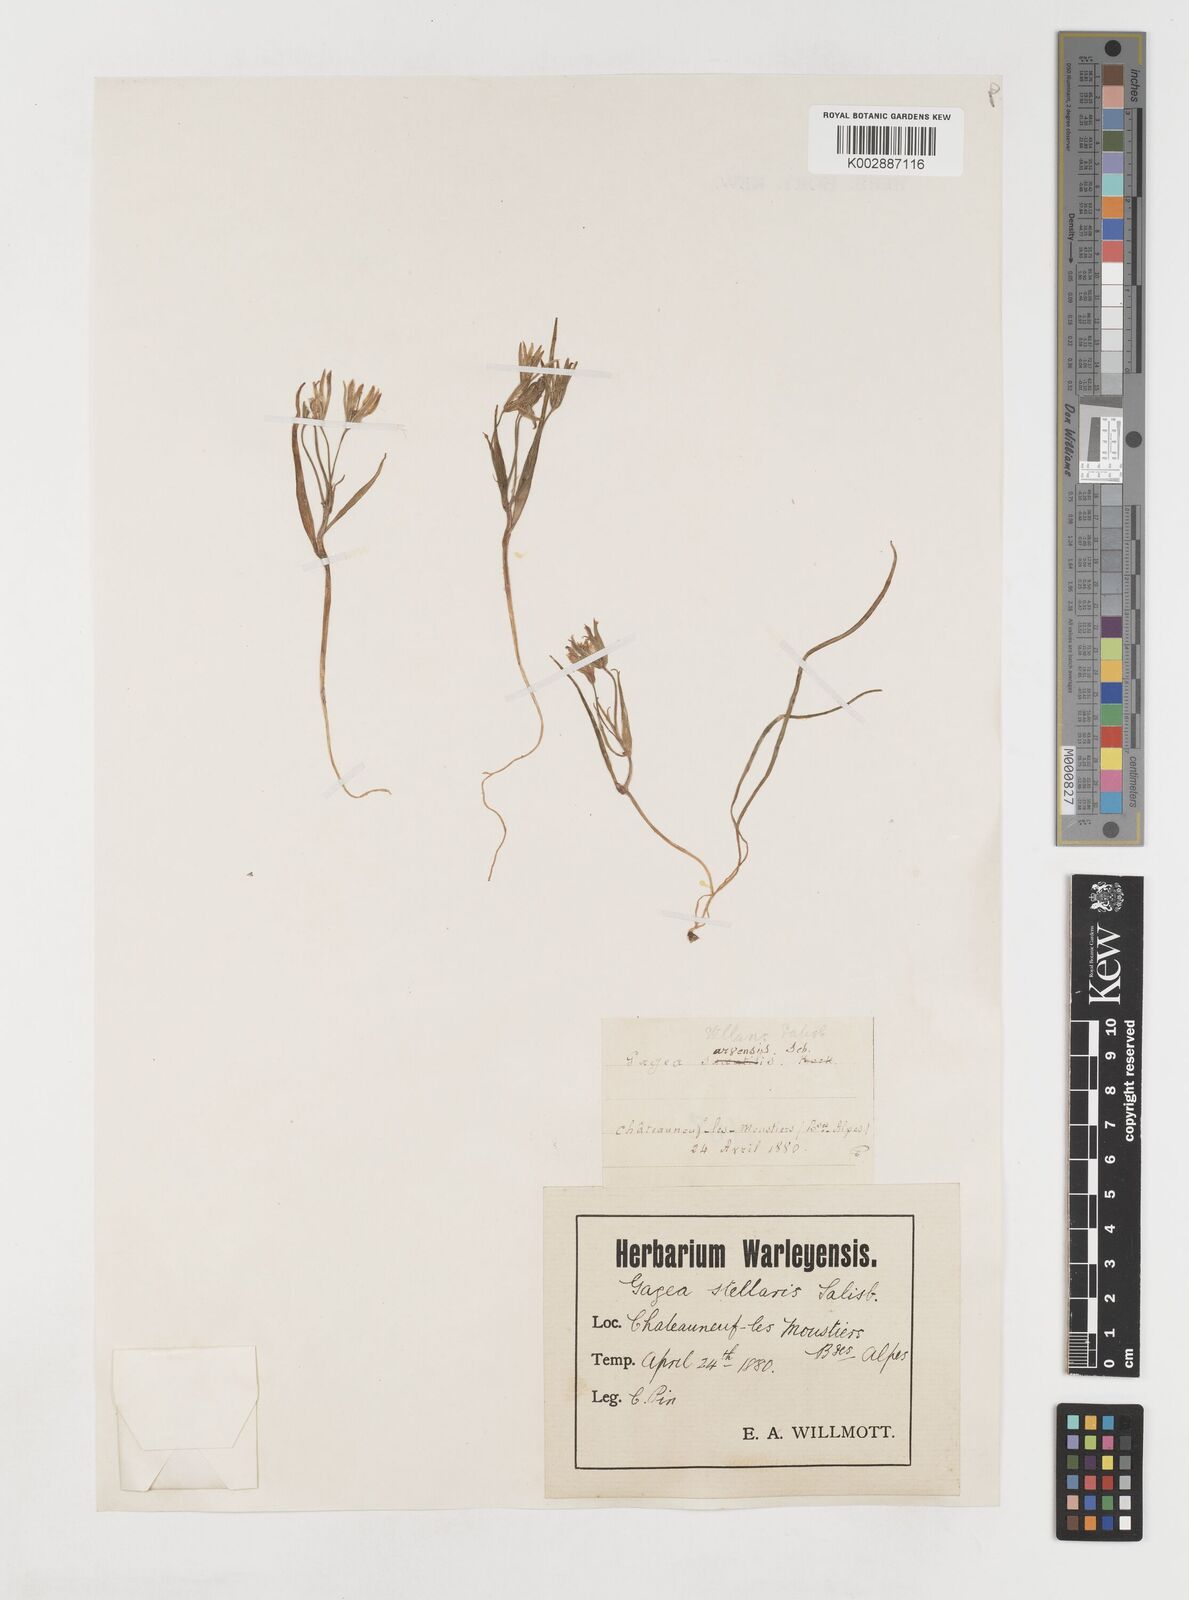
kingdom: Plantae
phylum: Tracheophyta
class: Liliopsida
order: Liliales
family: Liliaceae
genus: Gagea
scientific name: Gagea villosa
